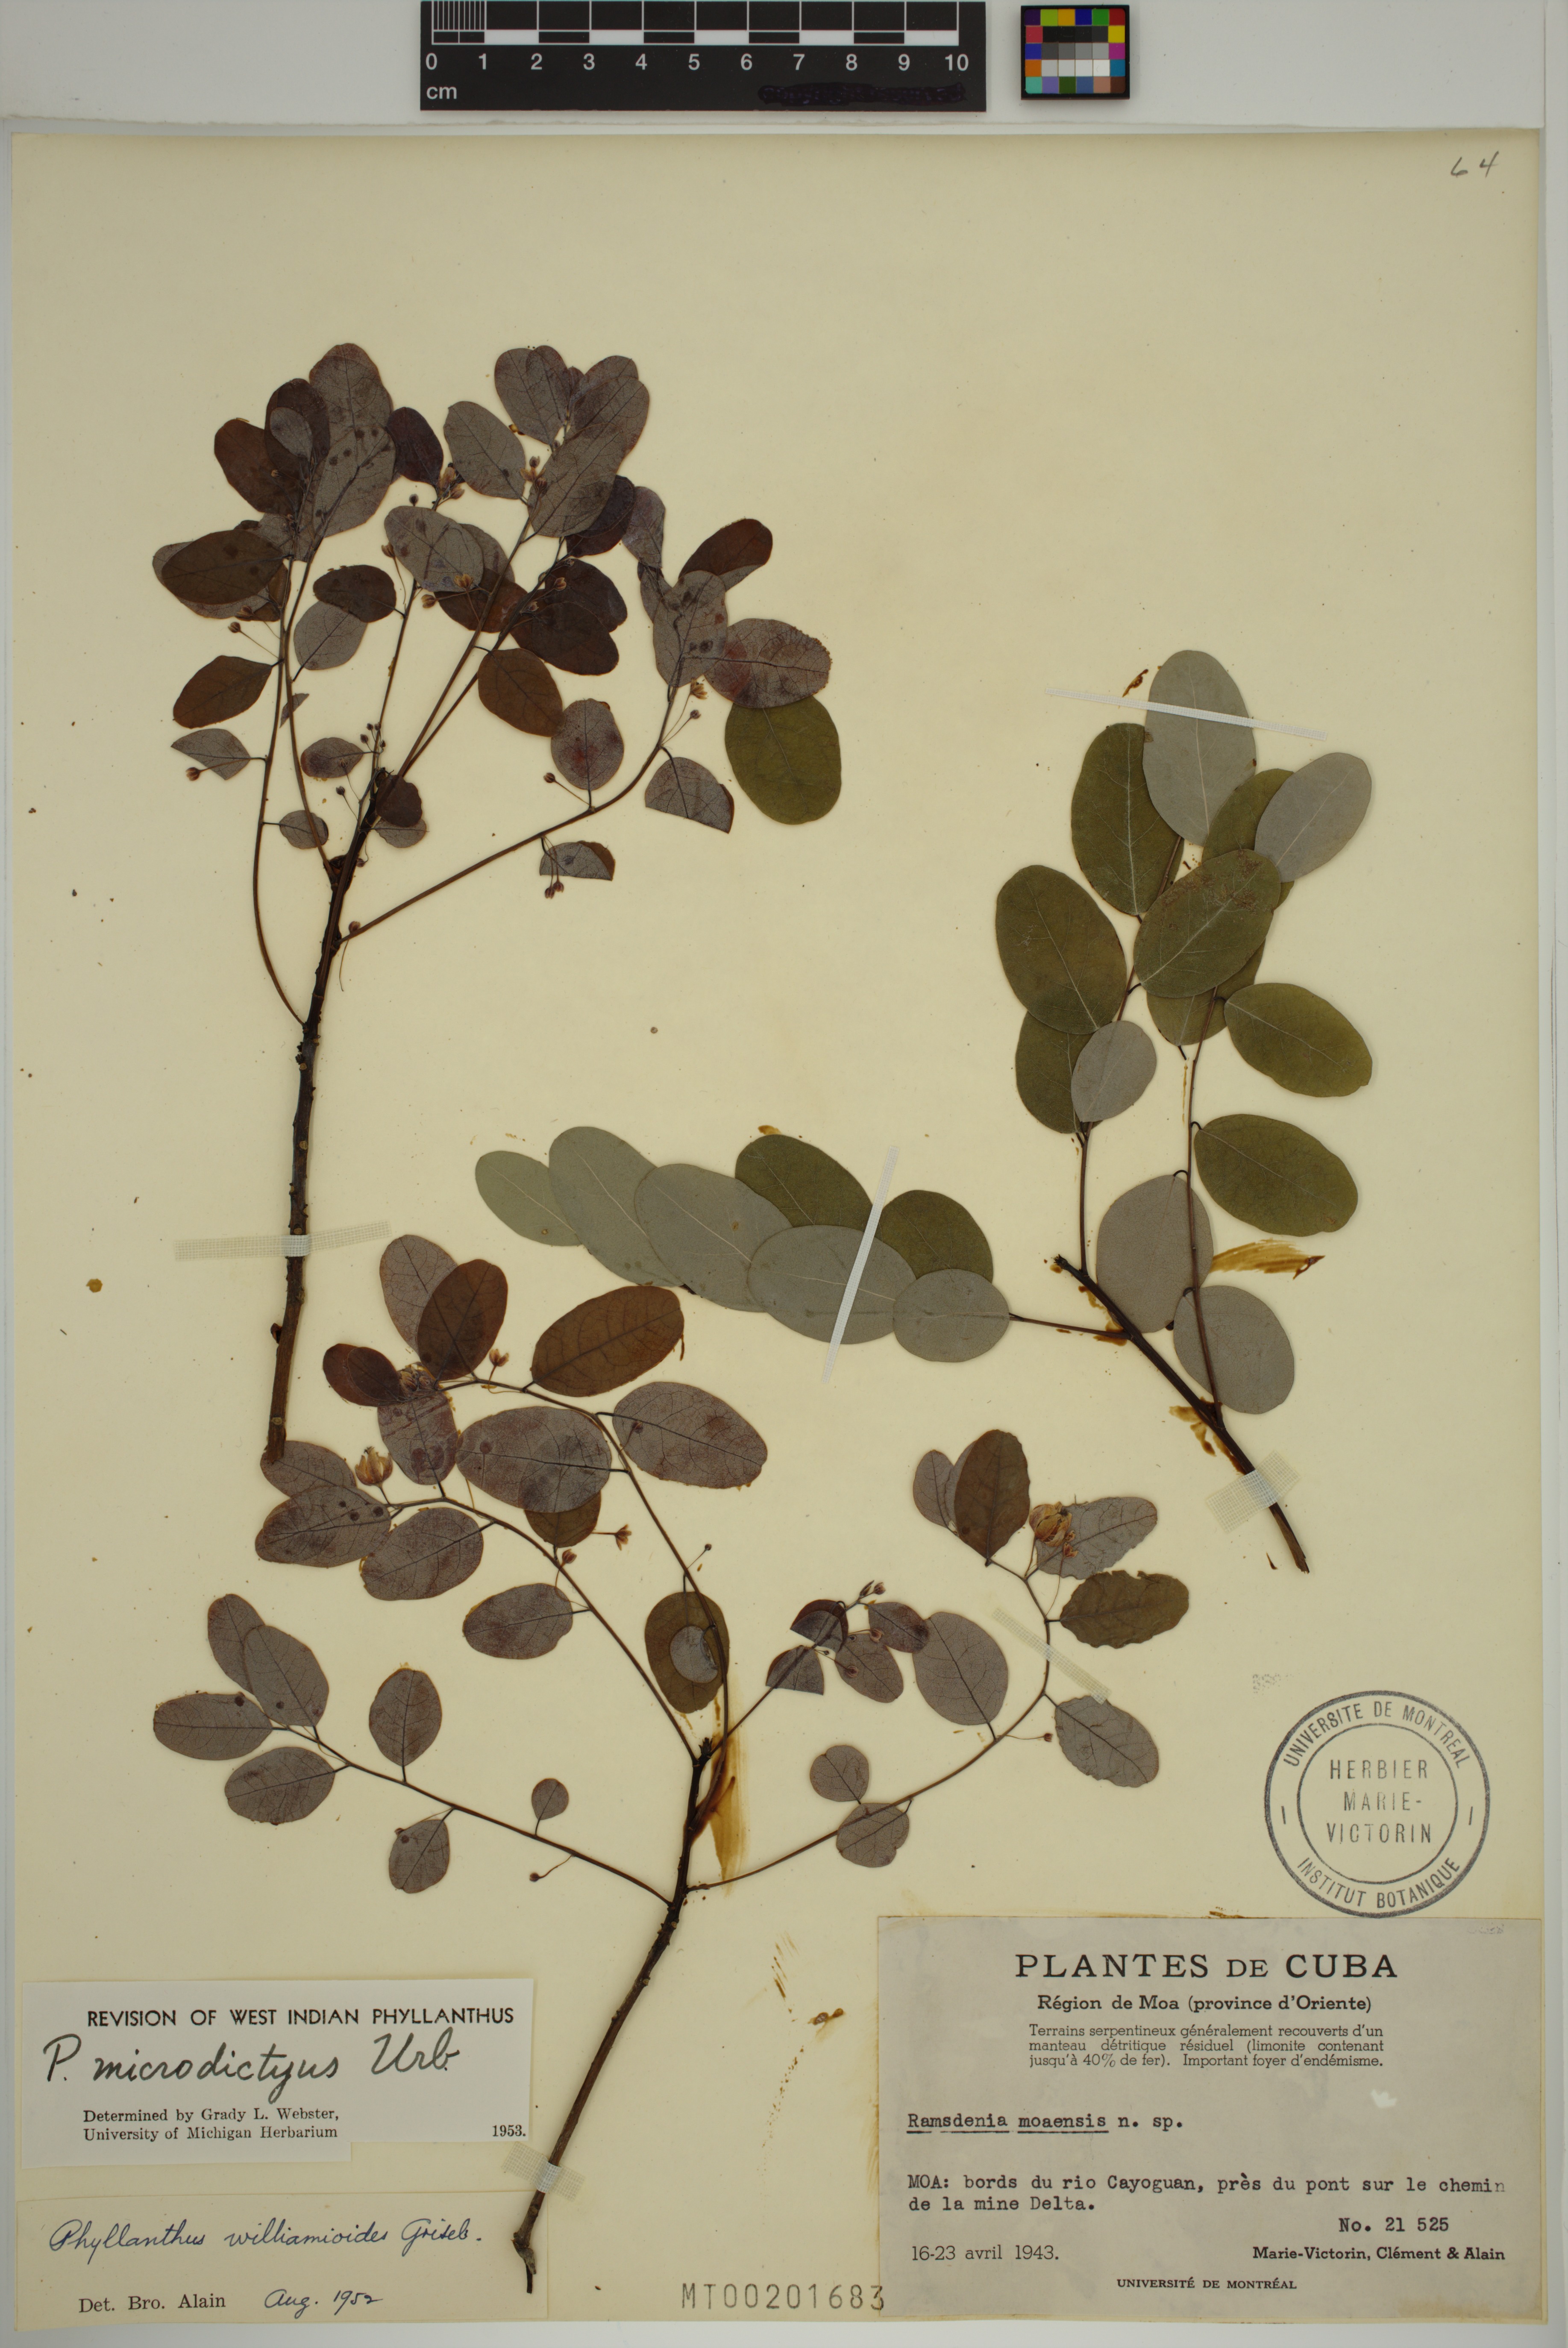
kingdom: Plantae
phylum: Tracheophyta
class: Magnoliopsida
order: Malpighiales
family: Phyllanthaceae
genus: Phyllanthus
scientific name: Phyllanthus microdictyus
